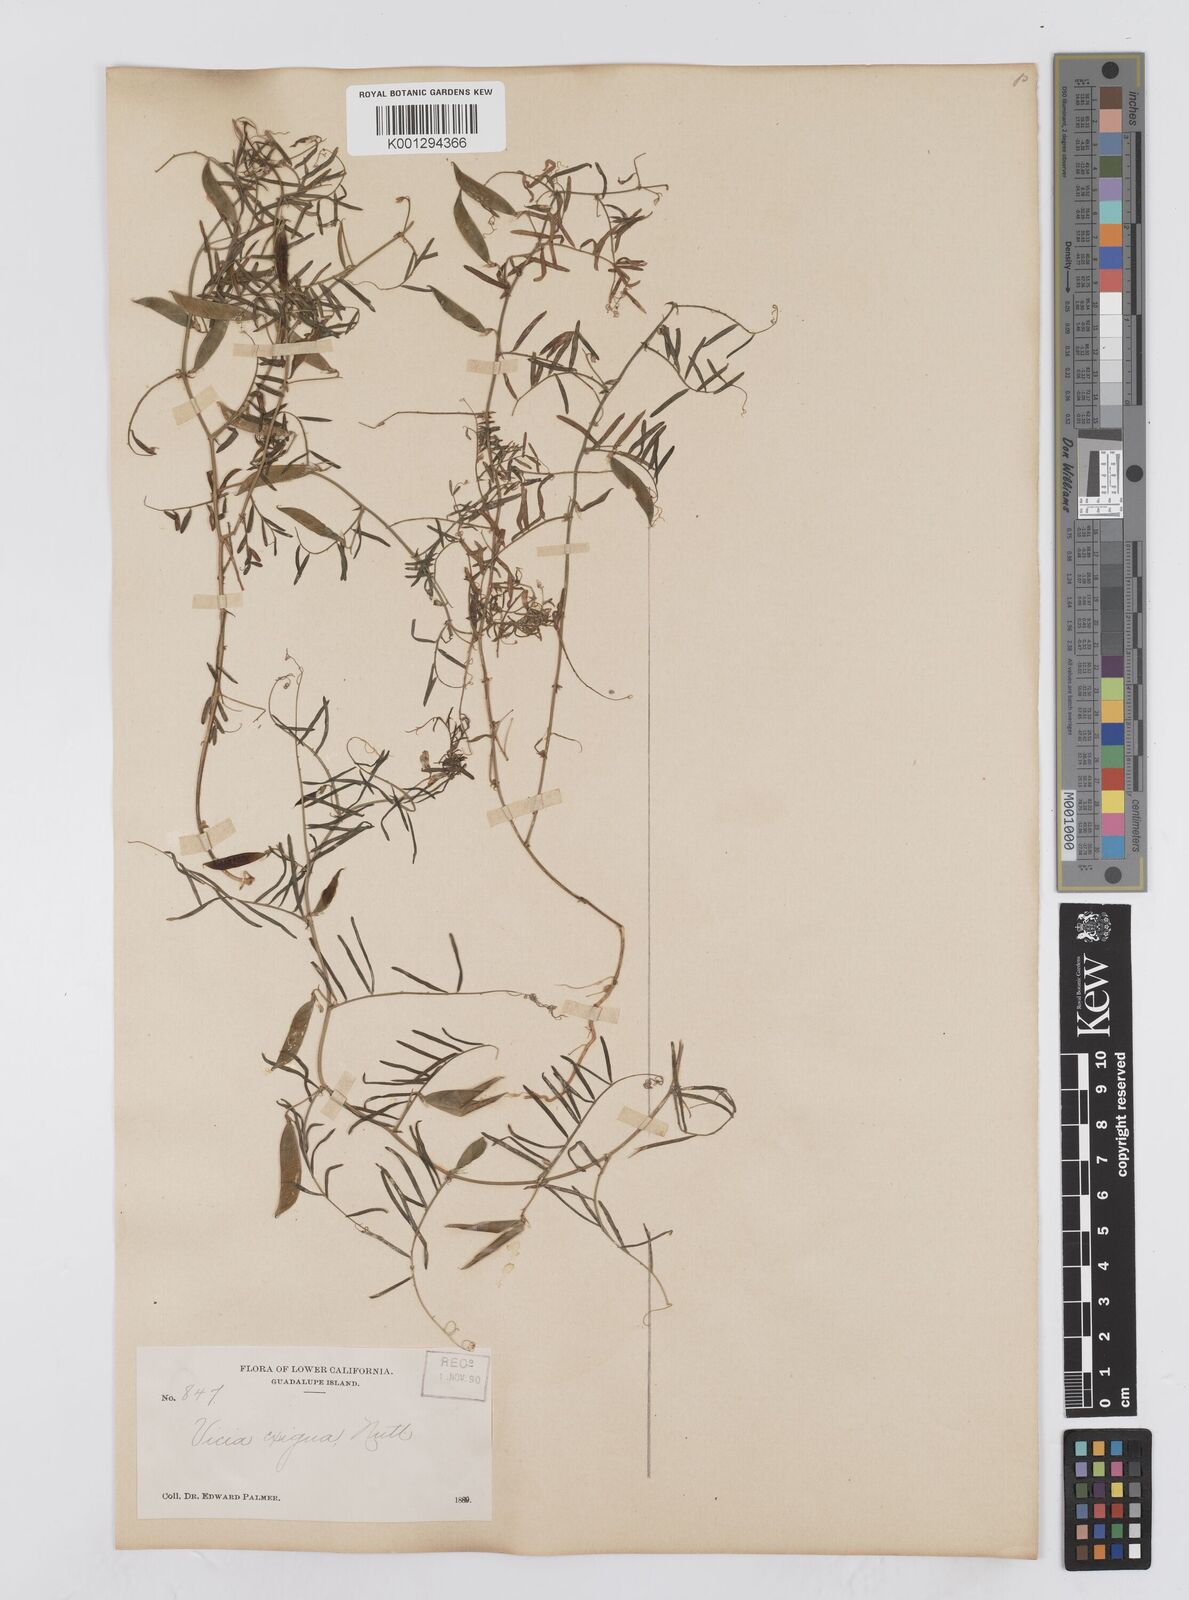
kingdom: Plantae
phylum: Tracheophyta
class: Magnoliopsida
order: Fabales
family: Fabaceae
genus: Vicia
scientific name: Vicia ludoviciana
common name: Louisiana vetch
